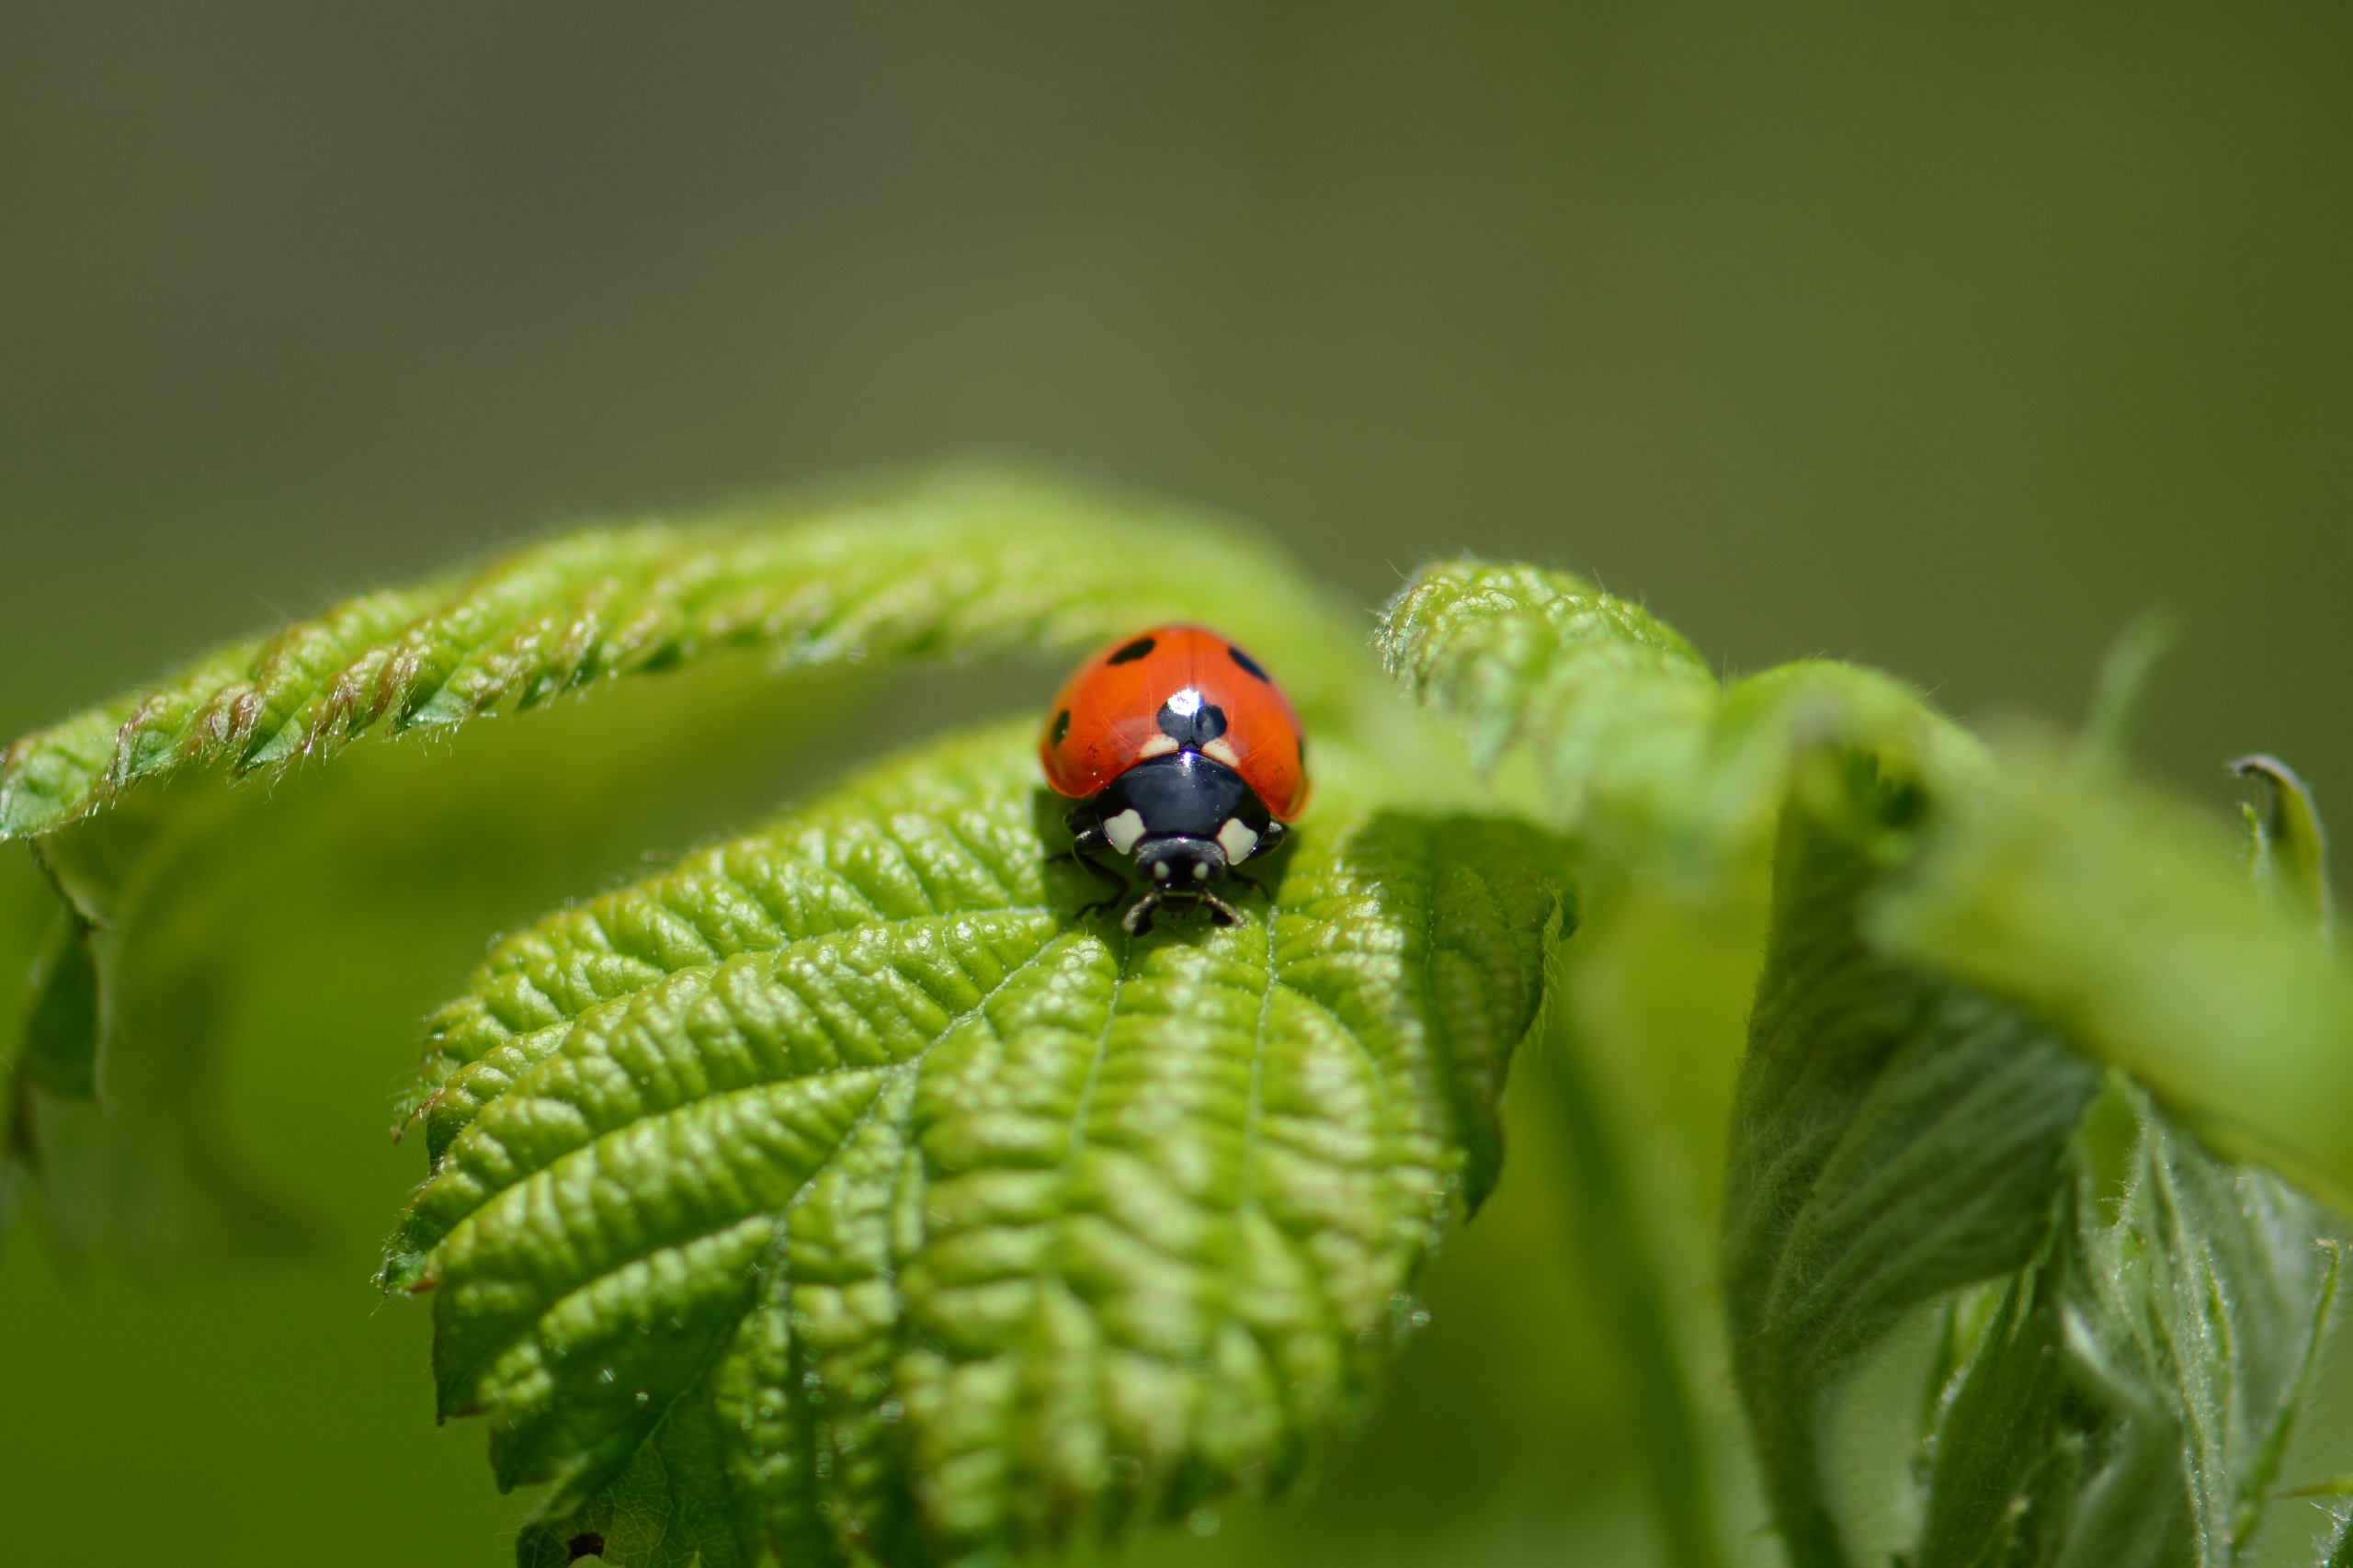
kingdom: Animalia
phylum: Arthropoda
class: Insecta
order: Coleoptera
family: Coccinellidae
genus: Coccinella
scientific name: Coccinella septempunctata
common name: Syvplettet mariehøne
